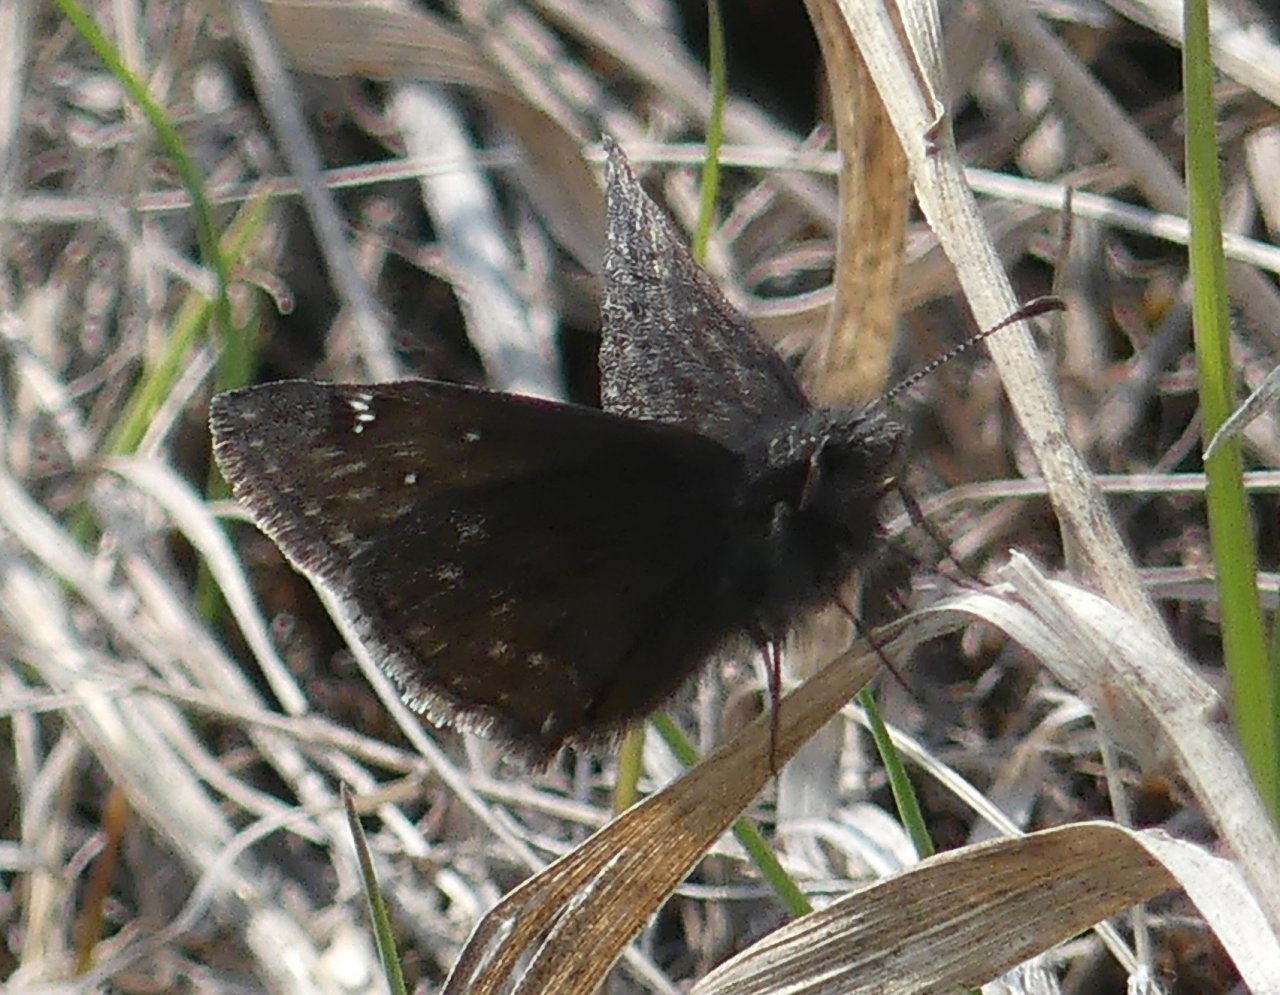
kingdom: Animalia
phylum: Arthropoda
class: Insecta
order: Lepidoptera
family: Hesperiidae
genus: Erynnis
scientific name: Erynnis icelus
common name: Dreamy Duskywing
